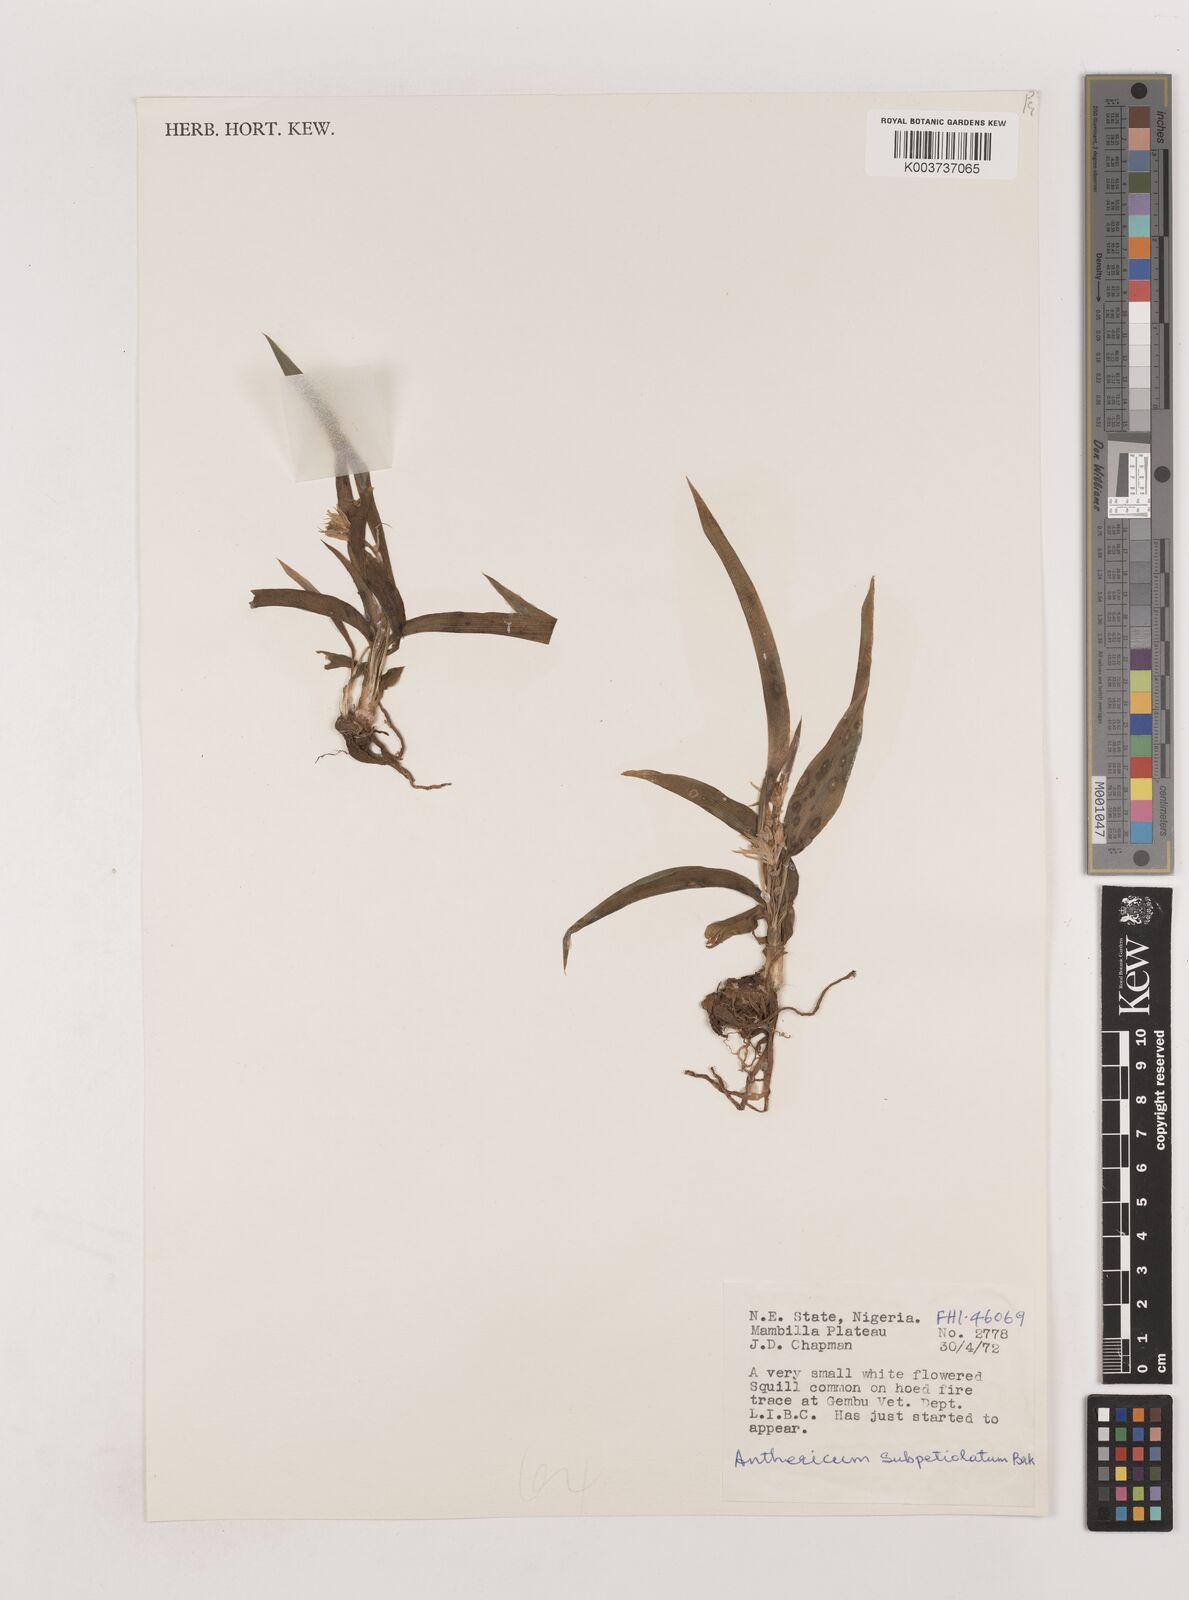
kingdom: Plantae
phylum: Tracheophyta
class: Liliopsida
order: Asparagales
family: Asparagaceae
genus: Chlorophytum
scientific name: Chlorophytum subpetiolatum
